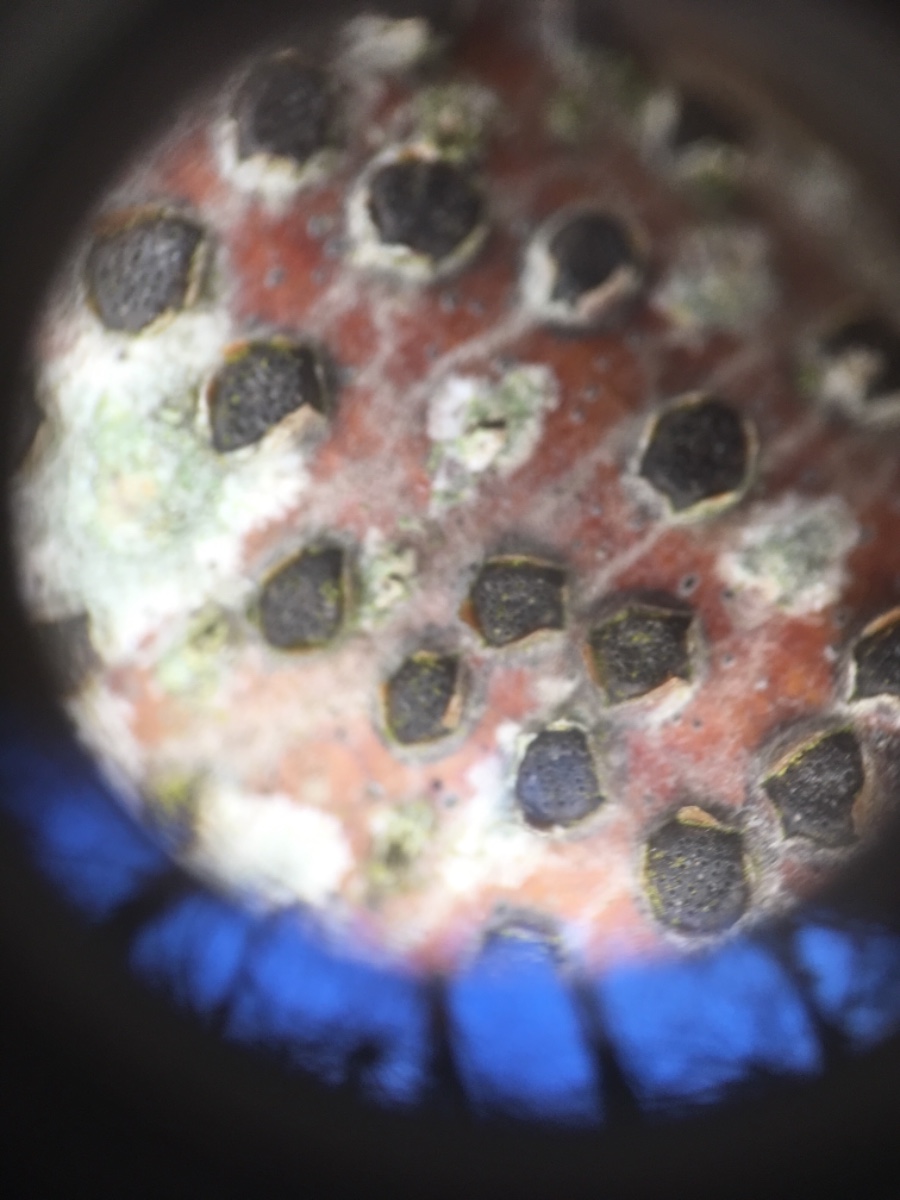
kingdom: Fungi
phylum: Ascomycota
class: Sordariomycetes
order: Xylariales
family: Diatrypaceae
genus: Diatrype
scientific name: Diatrype disciformis
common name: kant-kulskorpe
